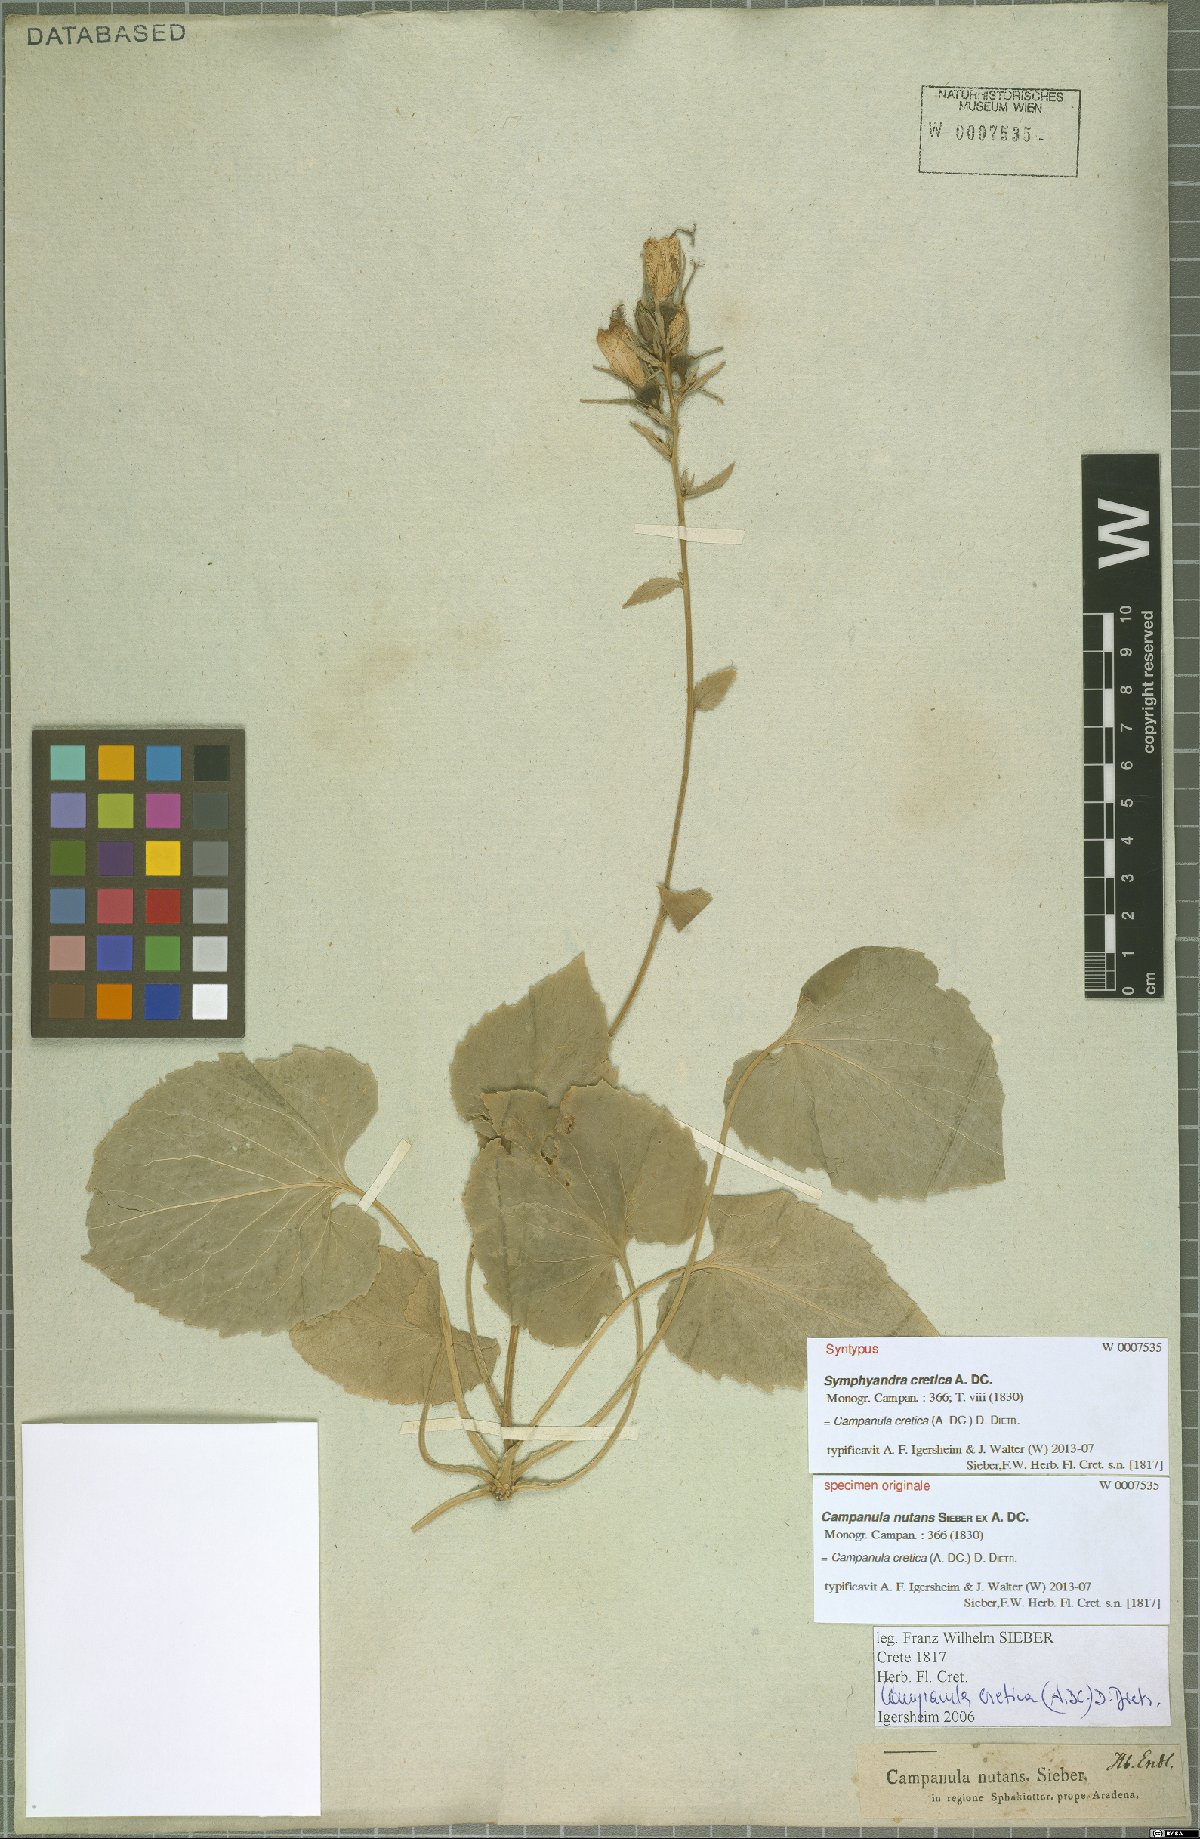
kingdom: Plantae
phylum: Tracheophyta
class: Magnoliopsida
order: Asterales
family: Campanulaceae
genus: Campanula
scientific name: Campanula cretica
